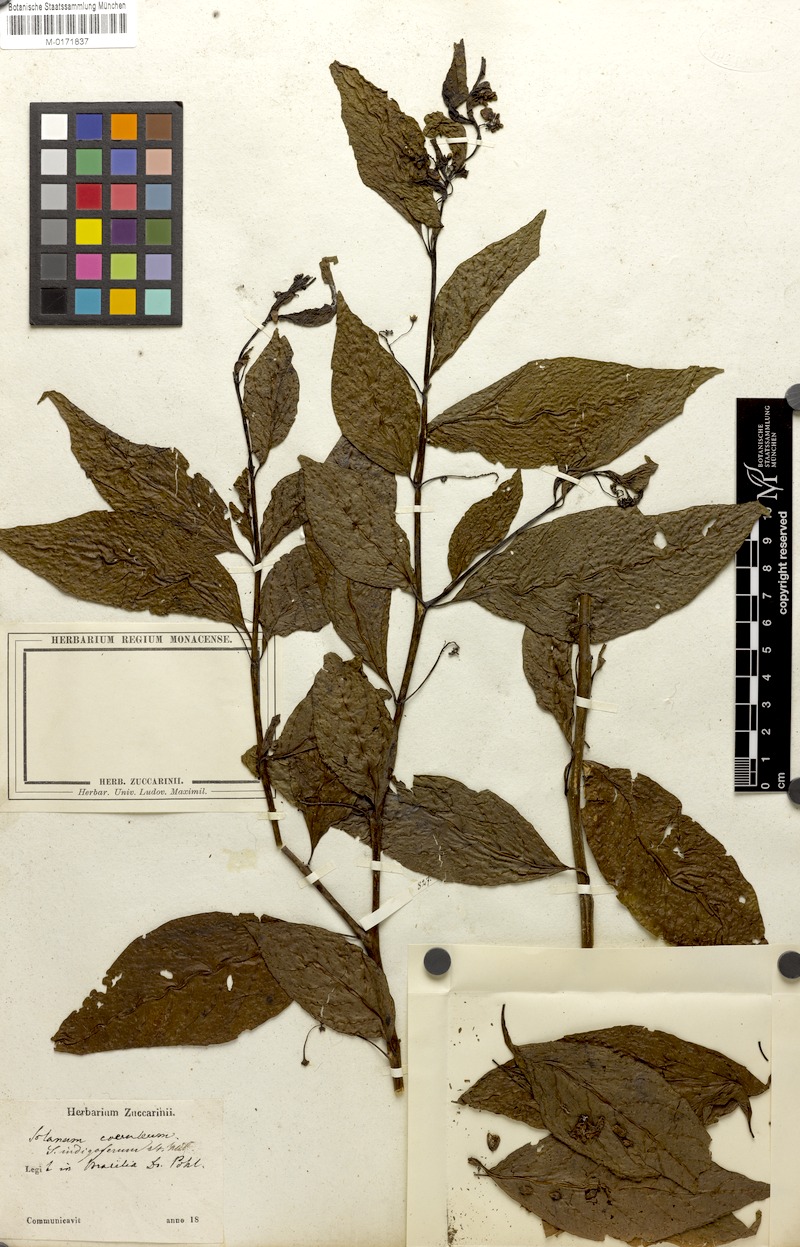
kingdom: Plantae
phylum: Tracheophyta
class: Magnoliopsida
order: Solanales
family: Solanaceae
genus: Solanum
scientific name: Solanum campaniforme
